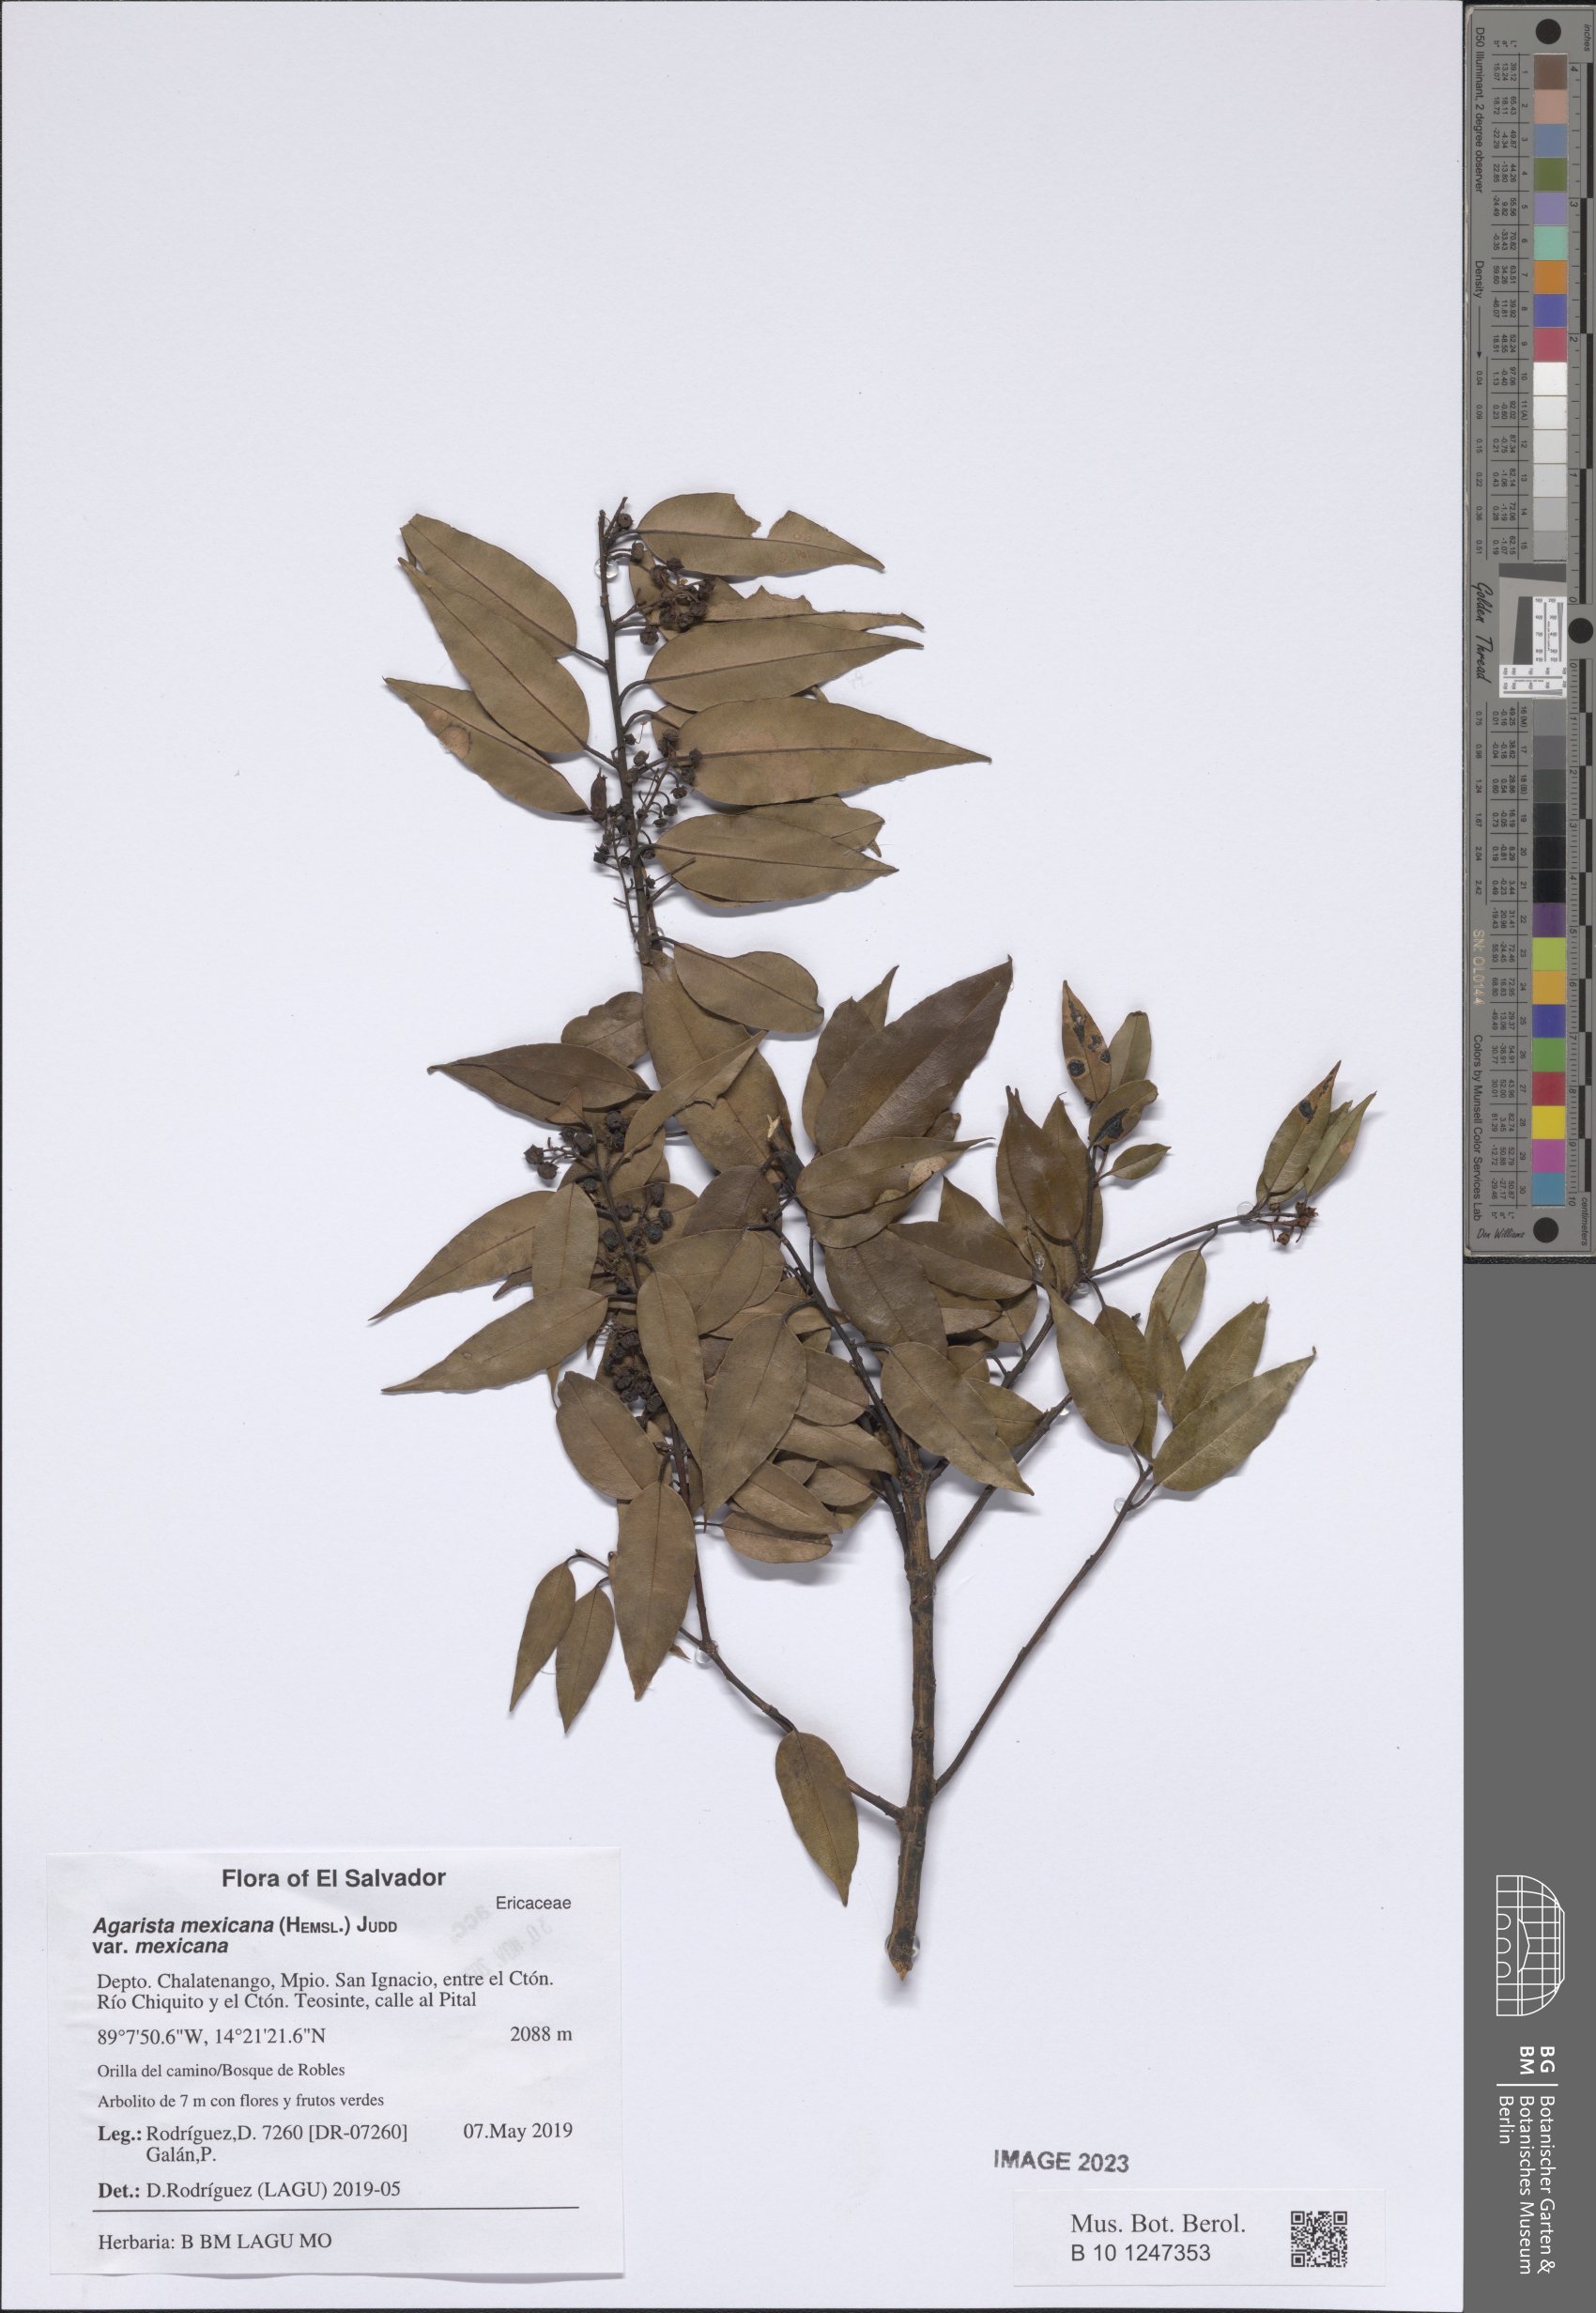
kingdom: Plantae
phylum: Tracheophyta
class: Magnoliopsida
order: Ericales
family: Ericaceae
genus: Agarista
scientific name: Agarista mexicana
